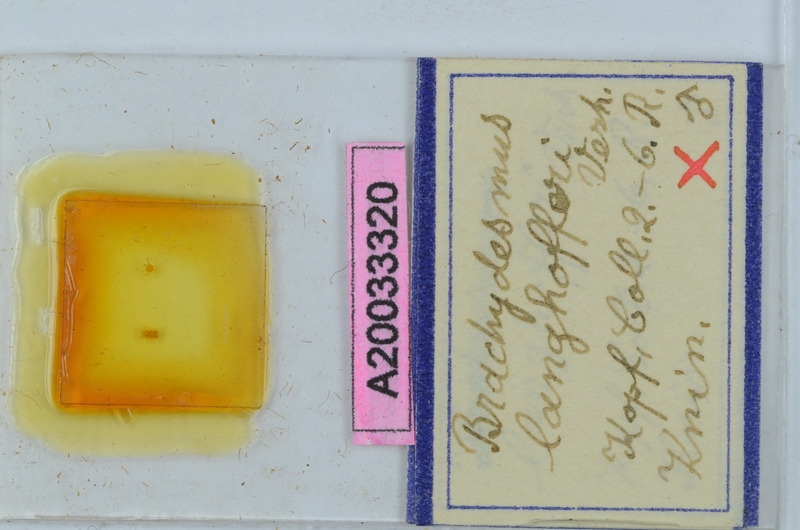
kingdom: Animalia
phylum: Arthropoda
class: Diplopoda
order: Polydesmida
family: Polydesmidae
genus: Brachydesmus
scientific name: Brachydesmus langhofferi
